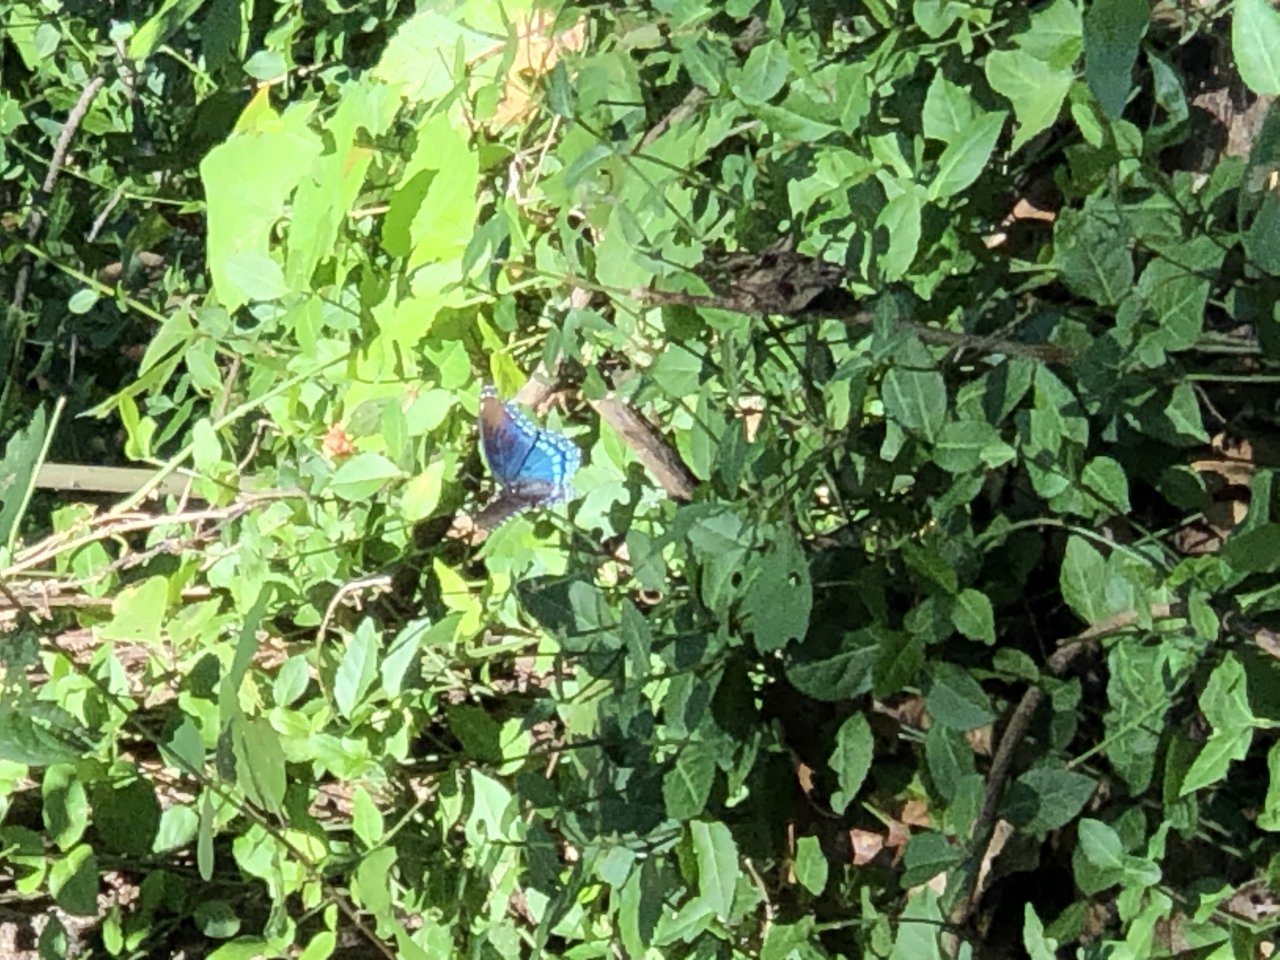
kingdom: Animalia
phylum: Arthropoda
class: Insecta
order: Lepidoptera
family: Nymphalidae
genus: Limenitis
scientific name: Limenitis arthemis
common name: Red-spotted Admiral
